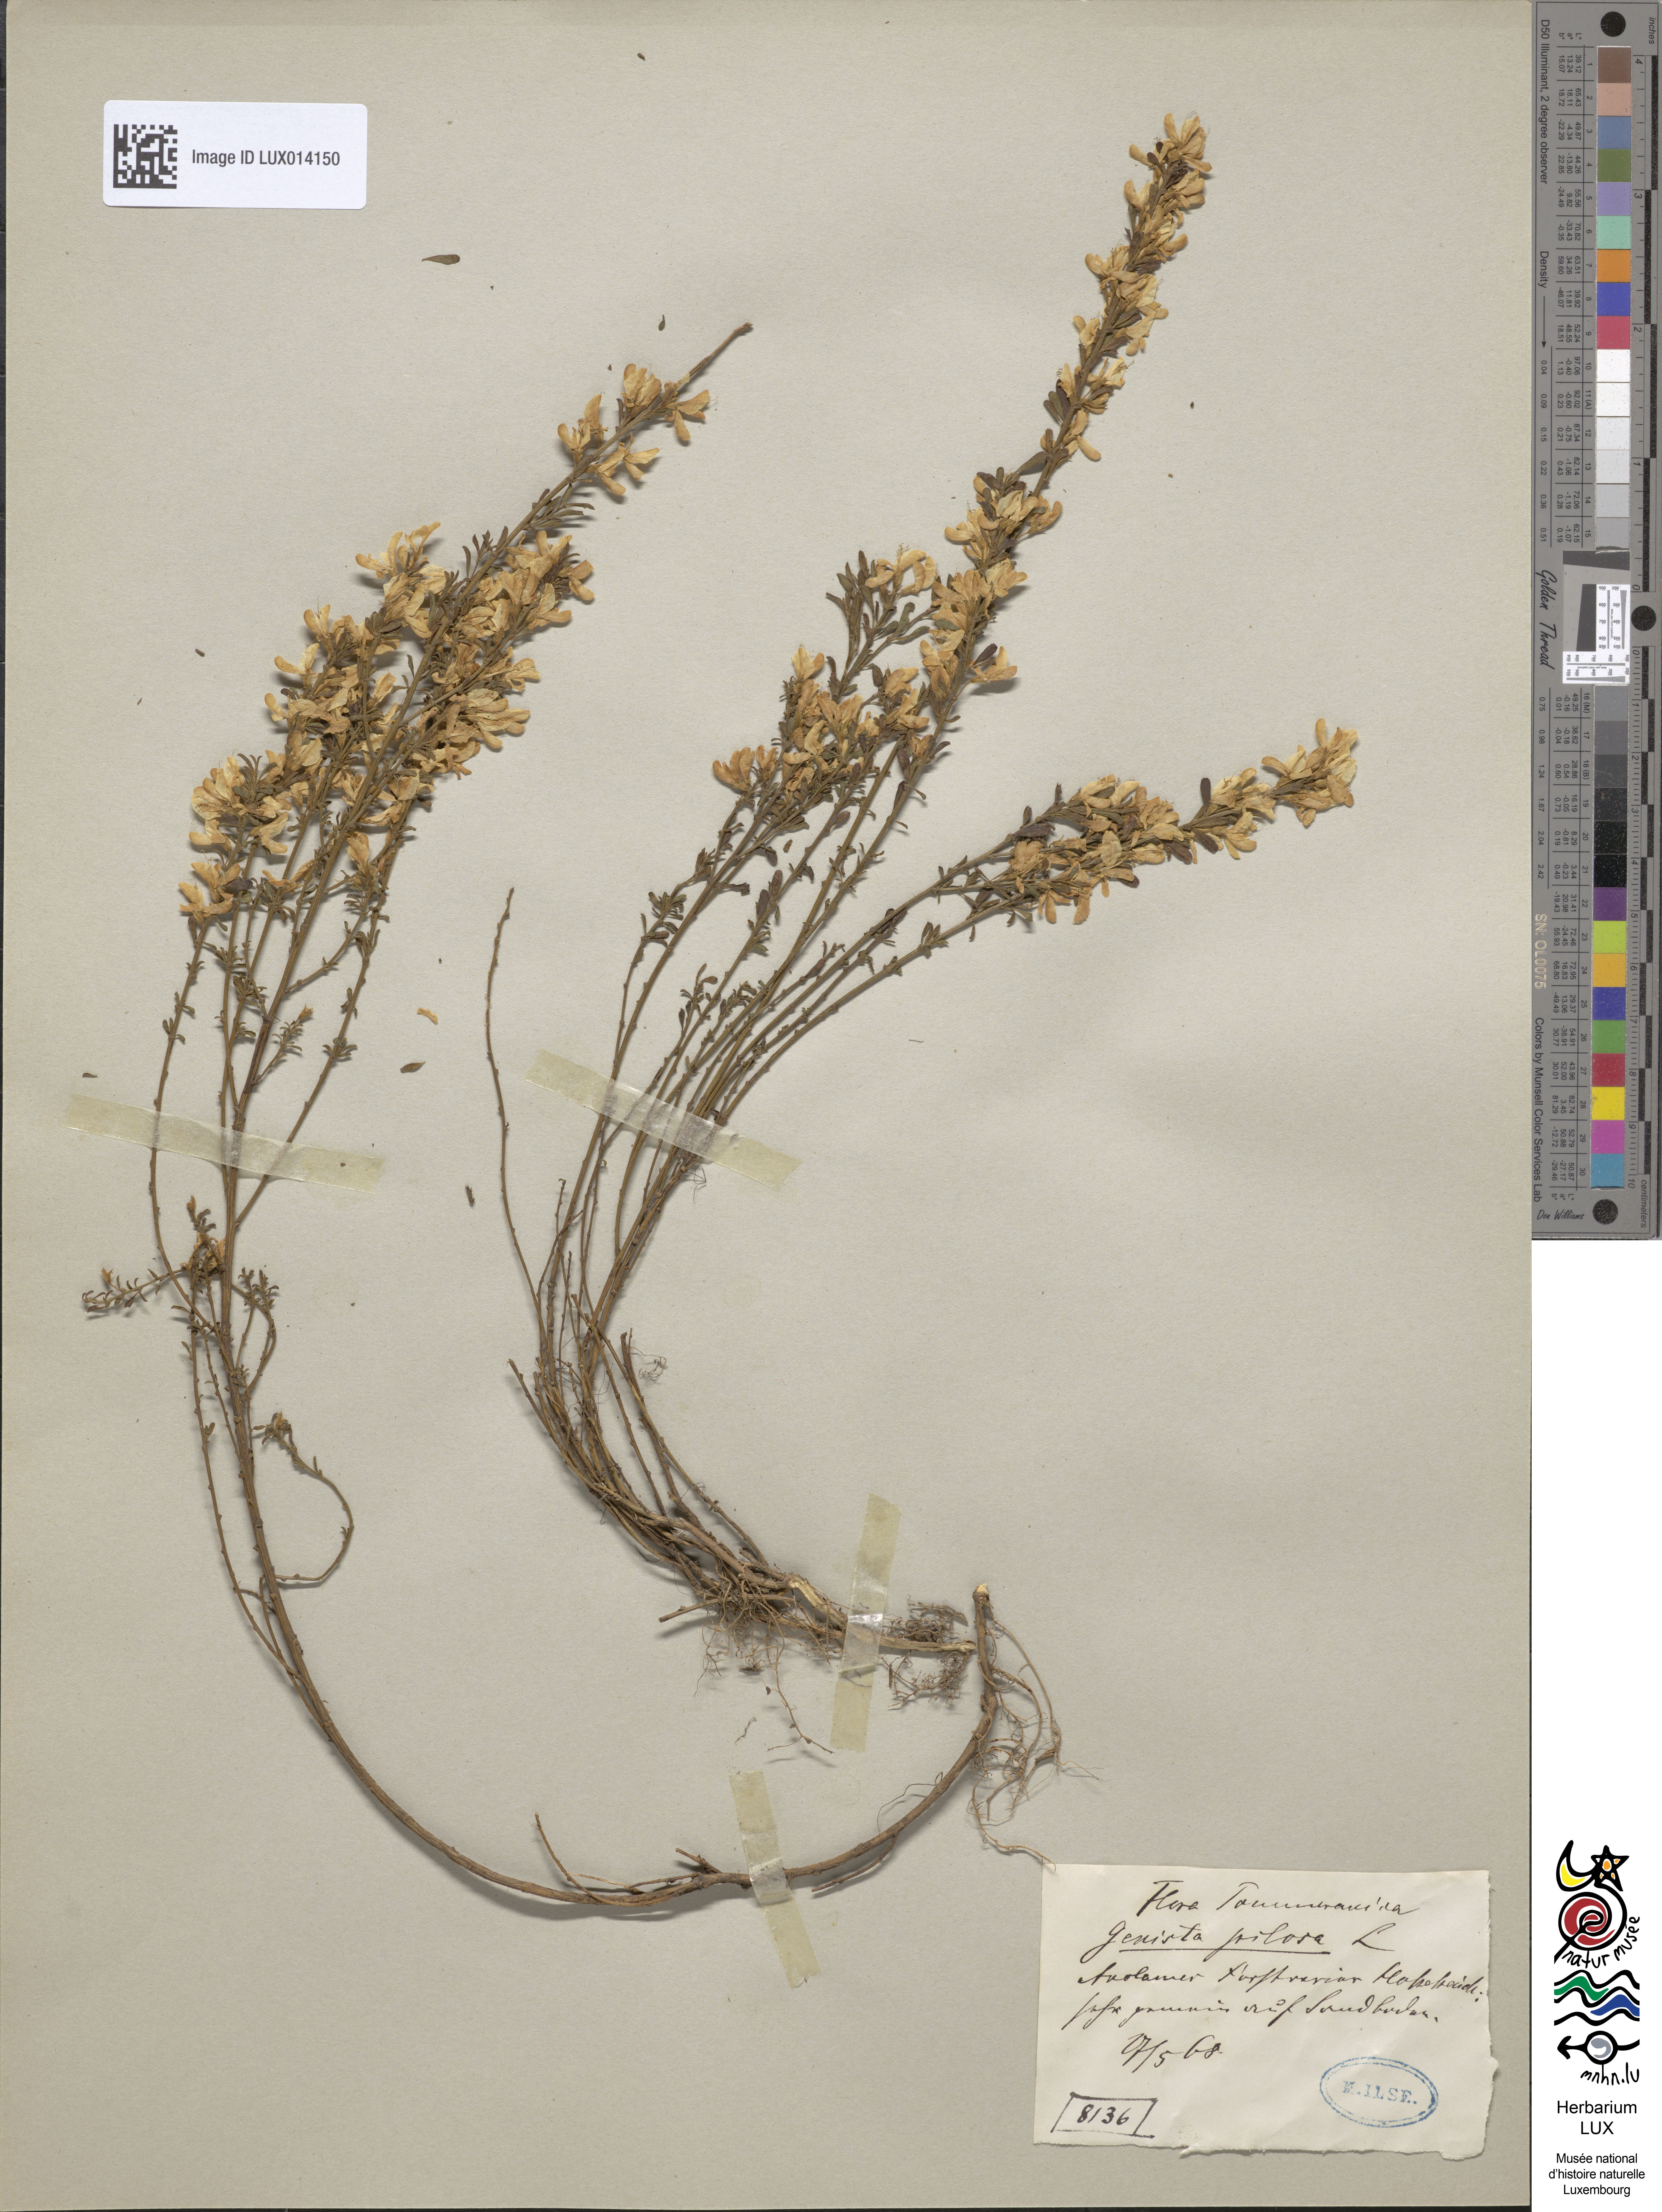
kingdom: Plantae
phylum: Tracheophyta
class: Magnoliopsida
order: Fabales
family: Fabaceae
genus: Genista
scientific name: Genista pilosa
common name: Hairy greenweed
